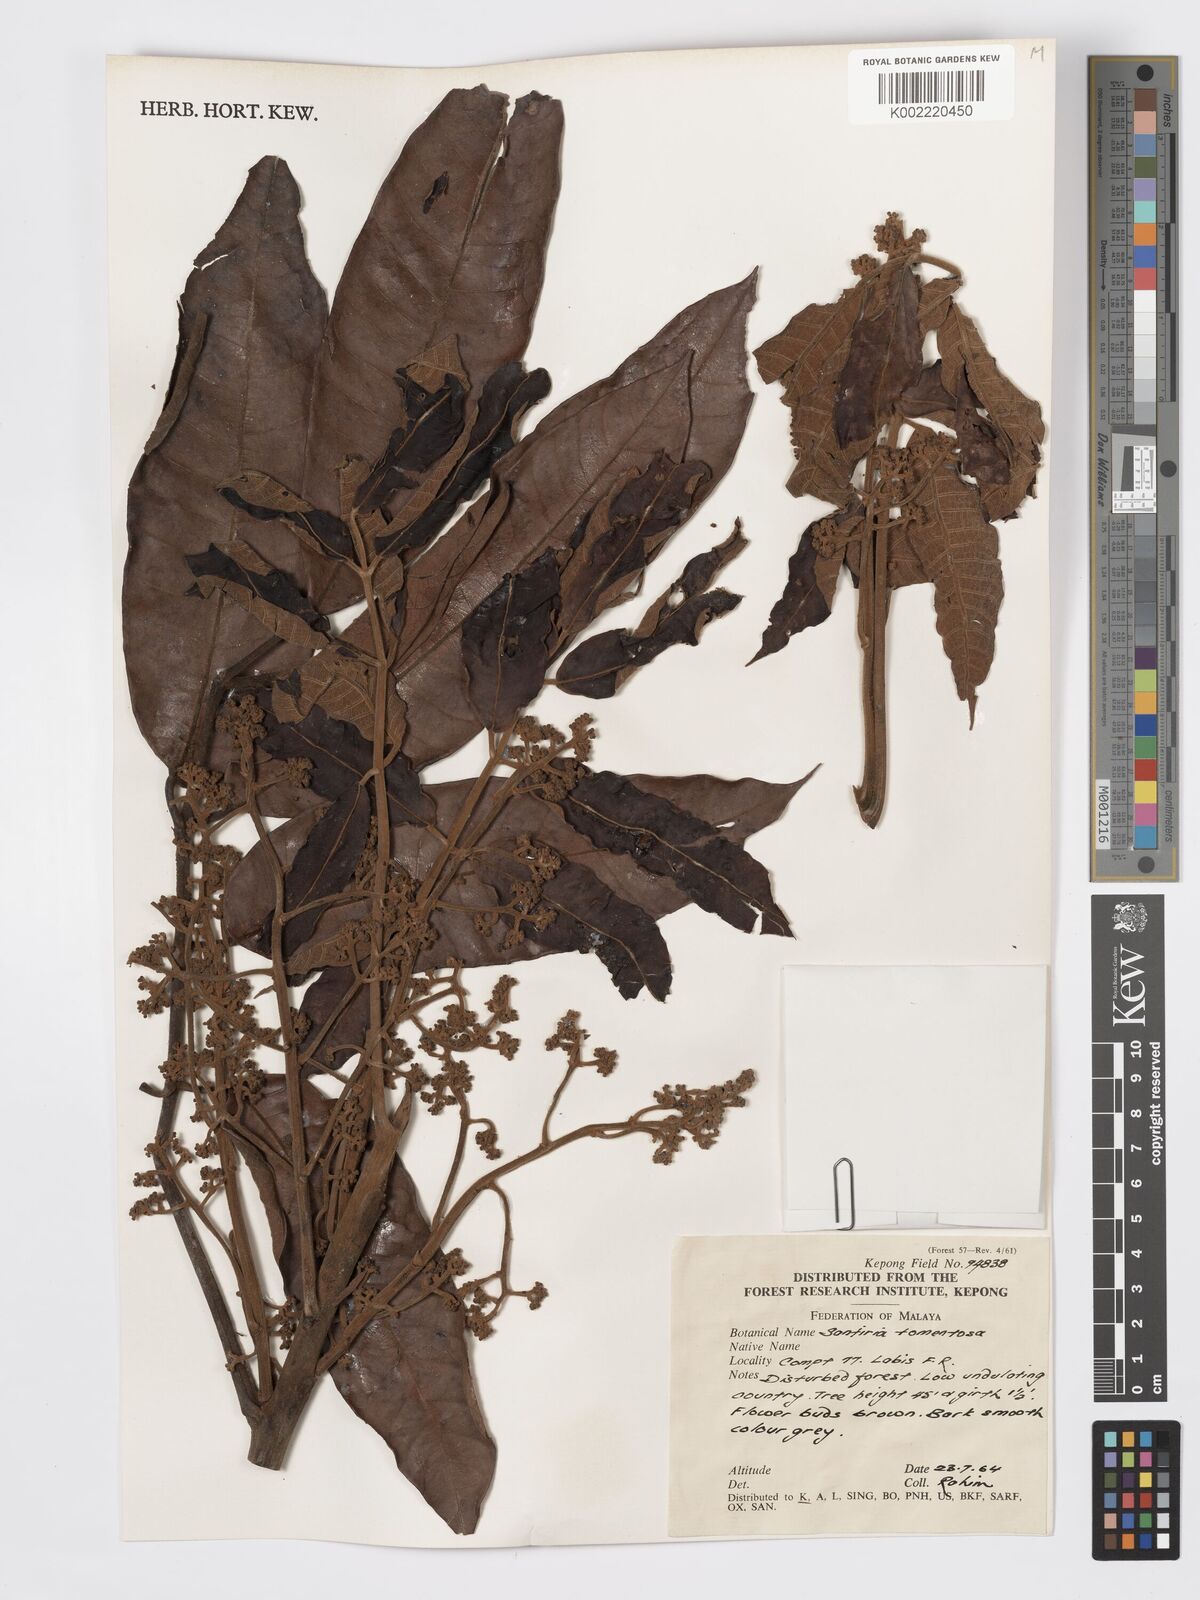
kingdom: Plantae
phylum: Tracheophyta
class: Magnoliopsida
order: Sapindales
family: Burseraceae
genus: Santiria
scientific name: Santiria tomentosa
